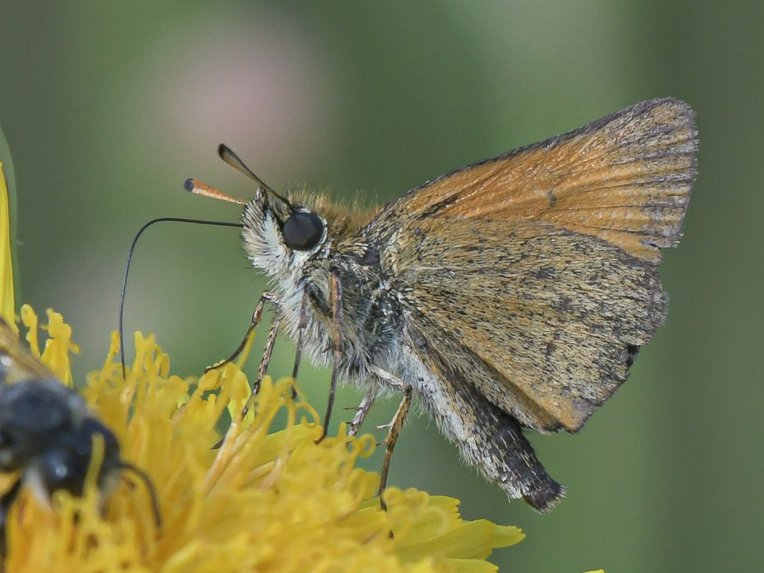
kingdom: Animalia
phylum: Arthropoda
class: Insecta
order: Lepidoptera
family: Hesperiidae
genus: Thymelicus
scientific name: Thymelicus lineola
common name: European Skipper
